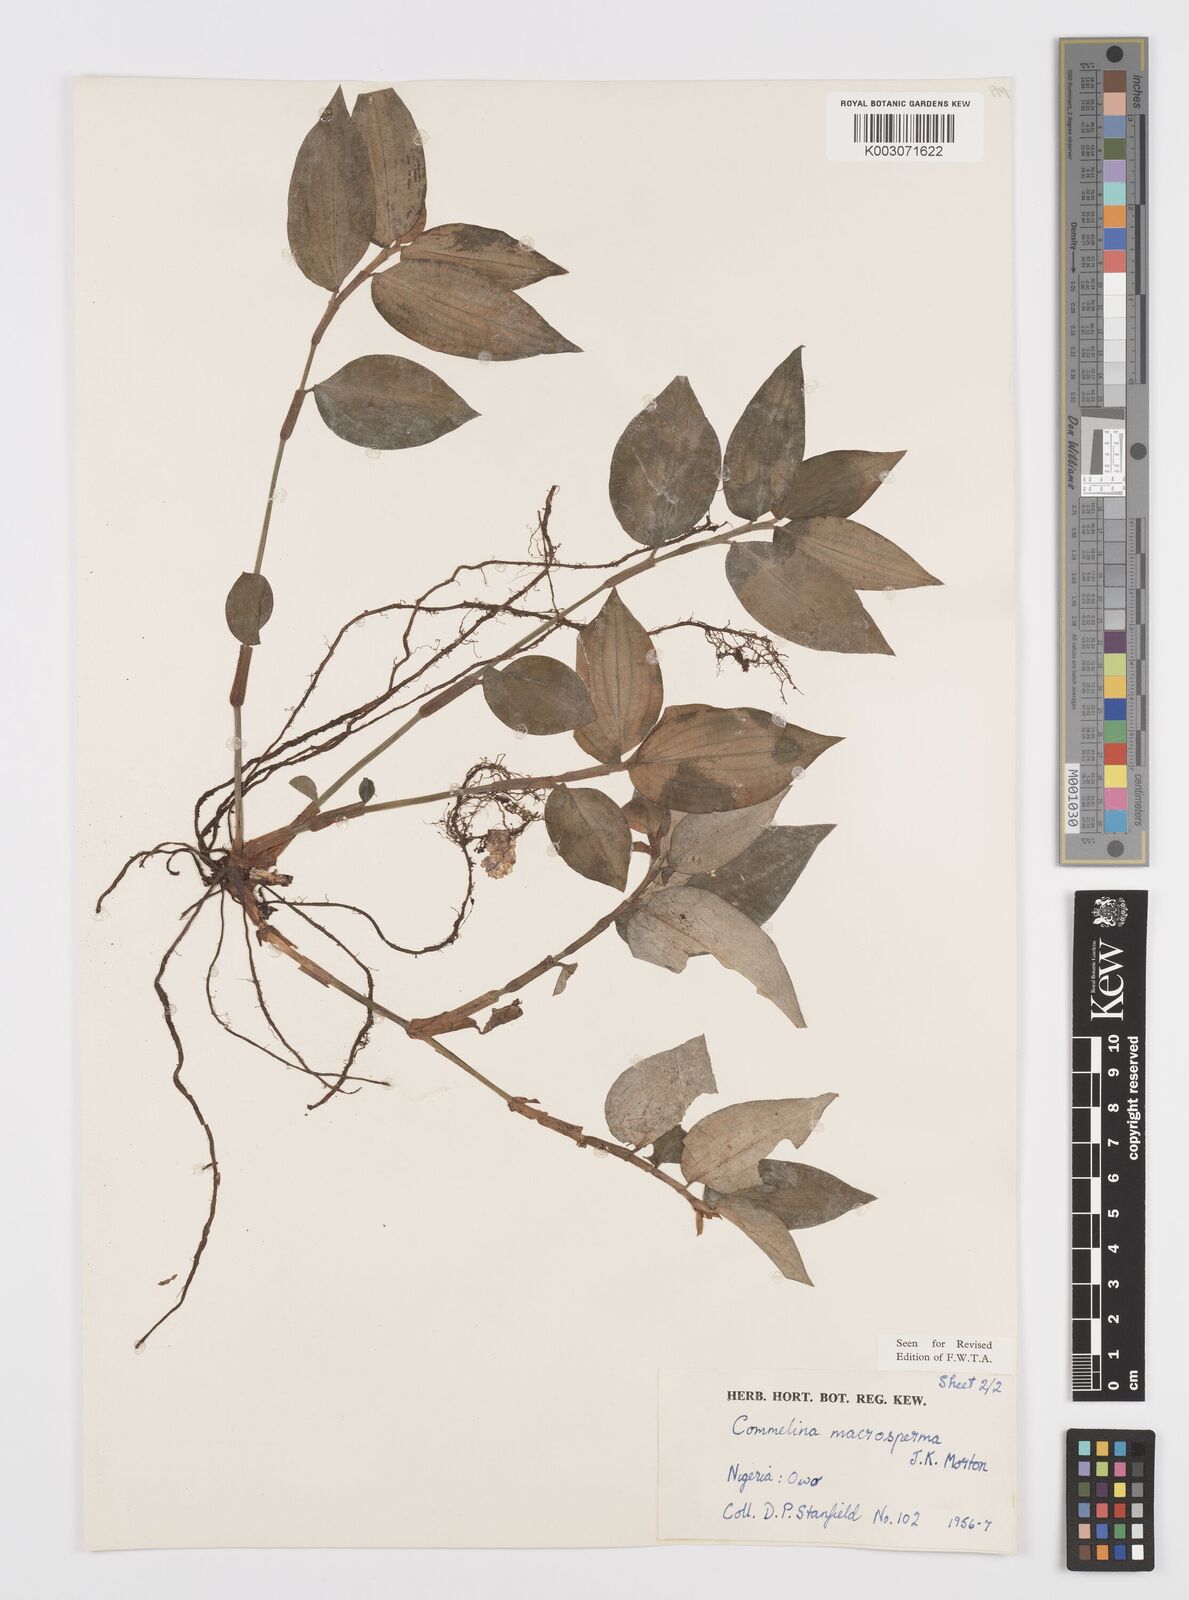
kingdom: Plantae
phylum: Tracheophyta
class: Liliopsida
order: Commelinales
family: Commelinaceae
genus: Commelina
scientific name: Commelina macrosperma
